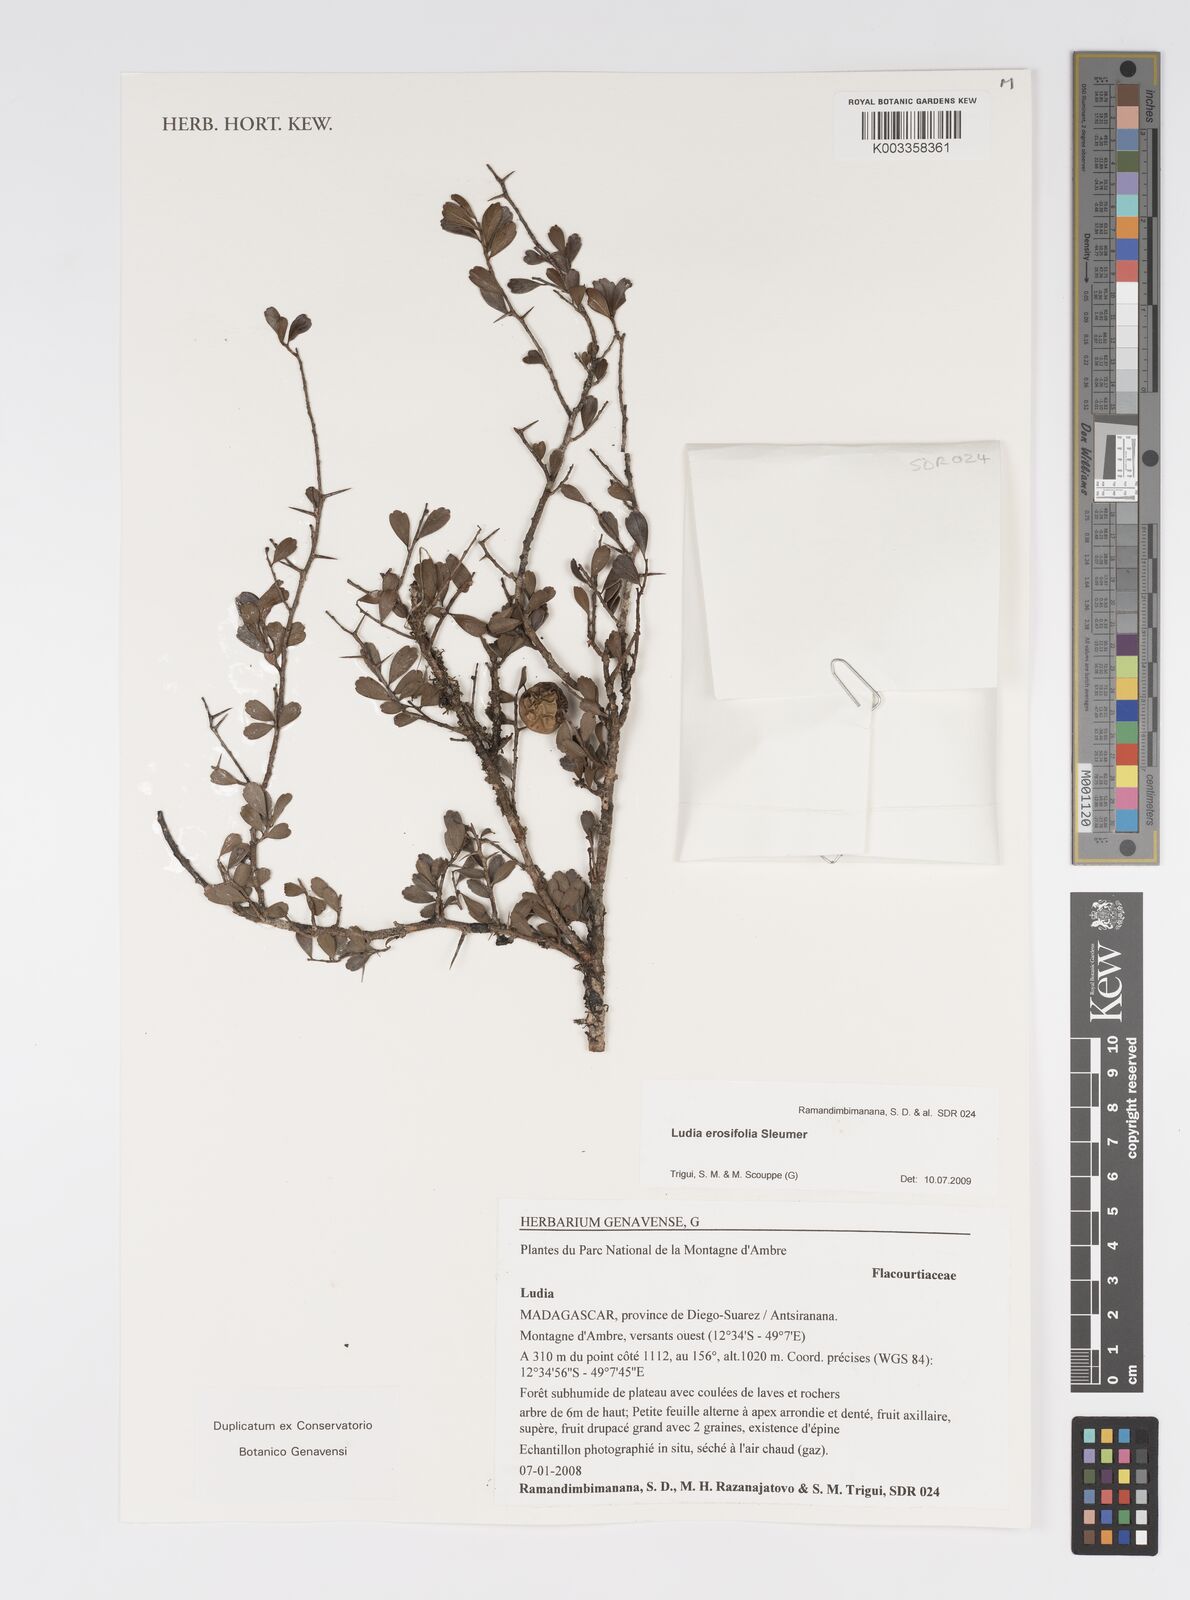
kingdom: Plantae
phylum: Tracheophyta
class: Magnoliopsida
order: Malpighiales
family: Salicaceae
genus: Ludia
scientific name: Ludia erosifolia
